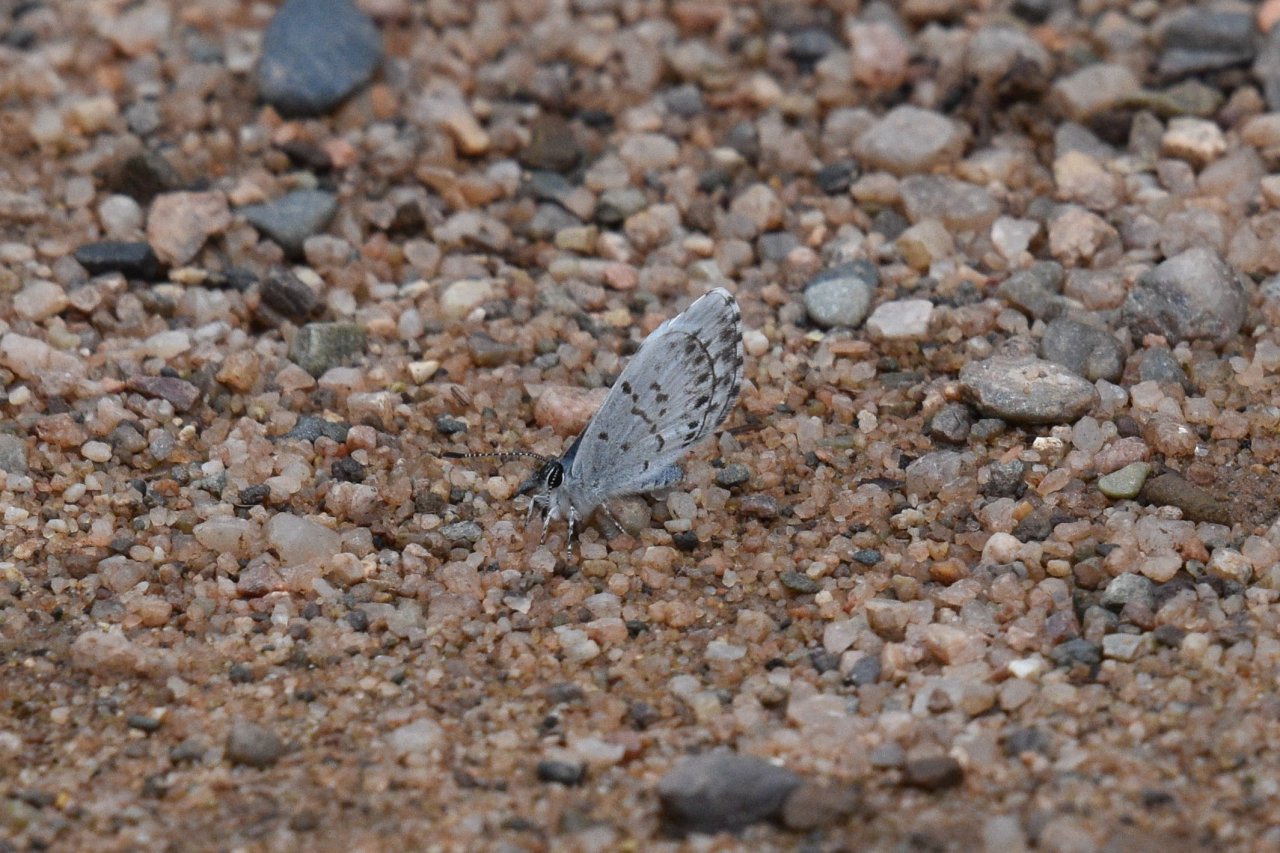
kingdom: Animalia
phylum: Arthropoda
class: Insecta
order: Lepidoptera
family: Lycaenidae
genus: Celastrina
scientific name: Celastrina lucia
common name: Northern Spring Azure
